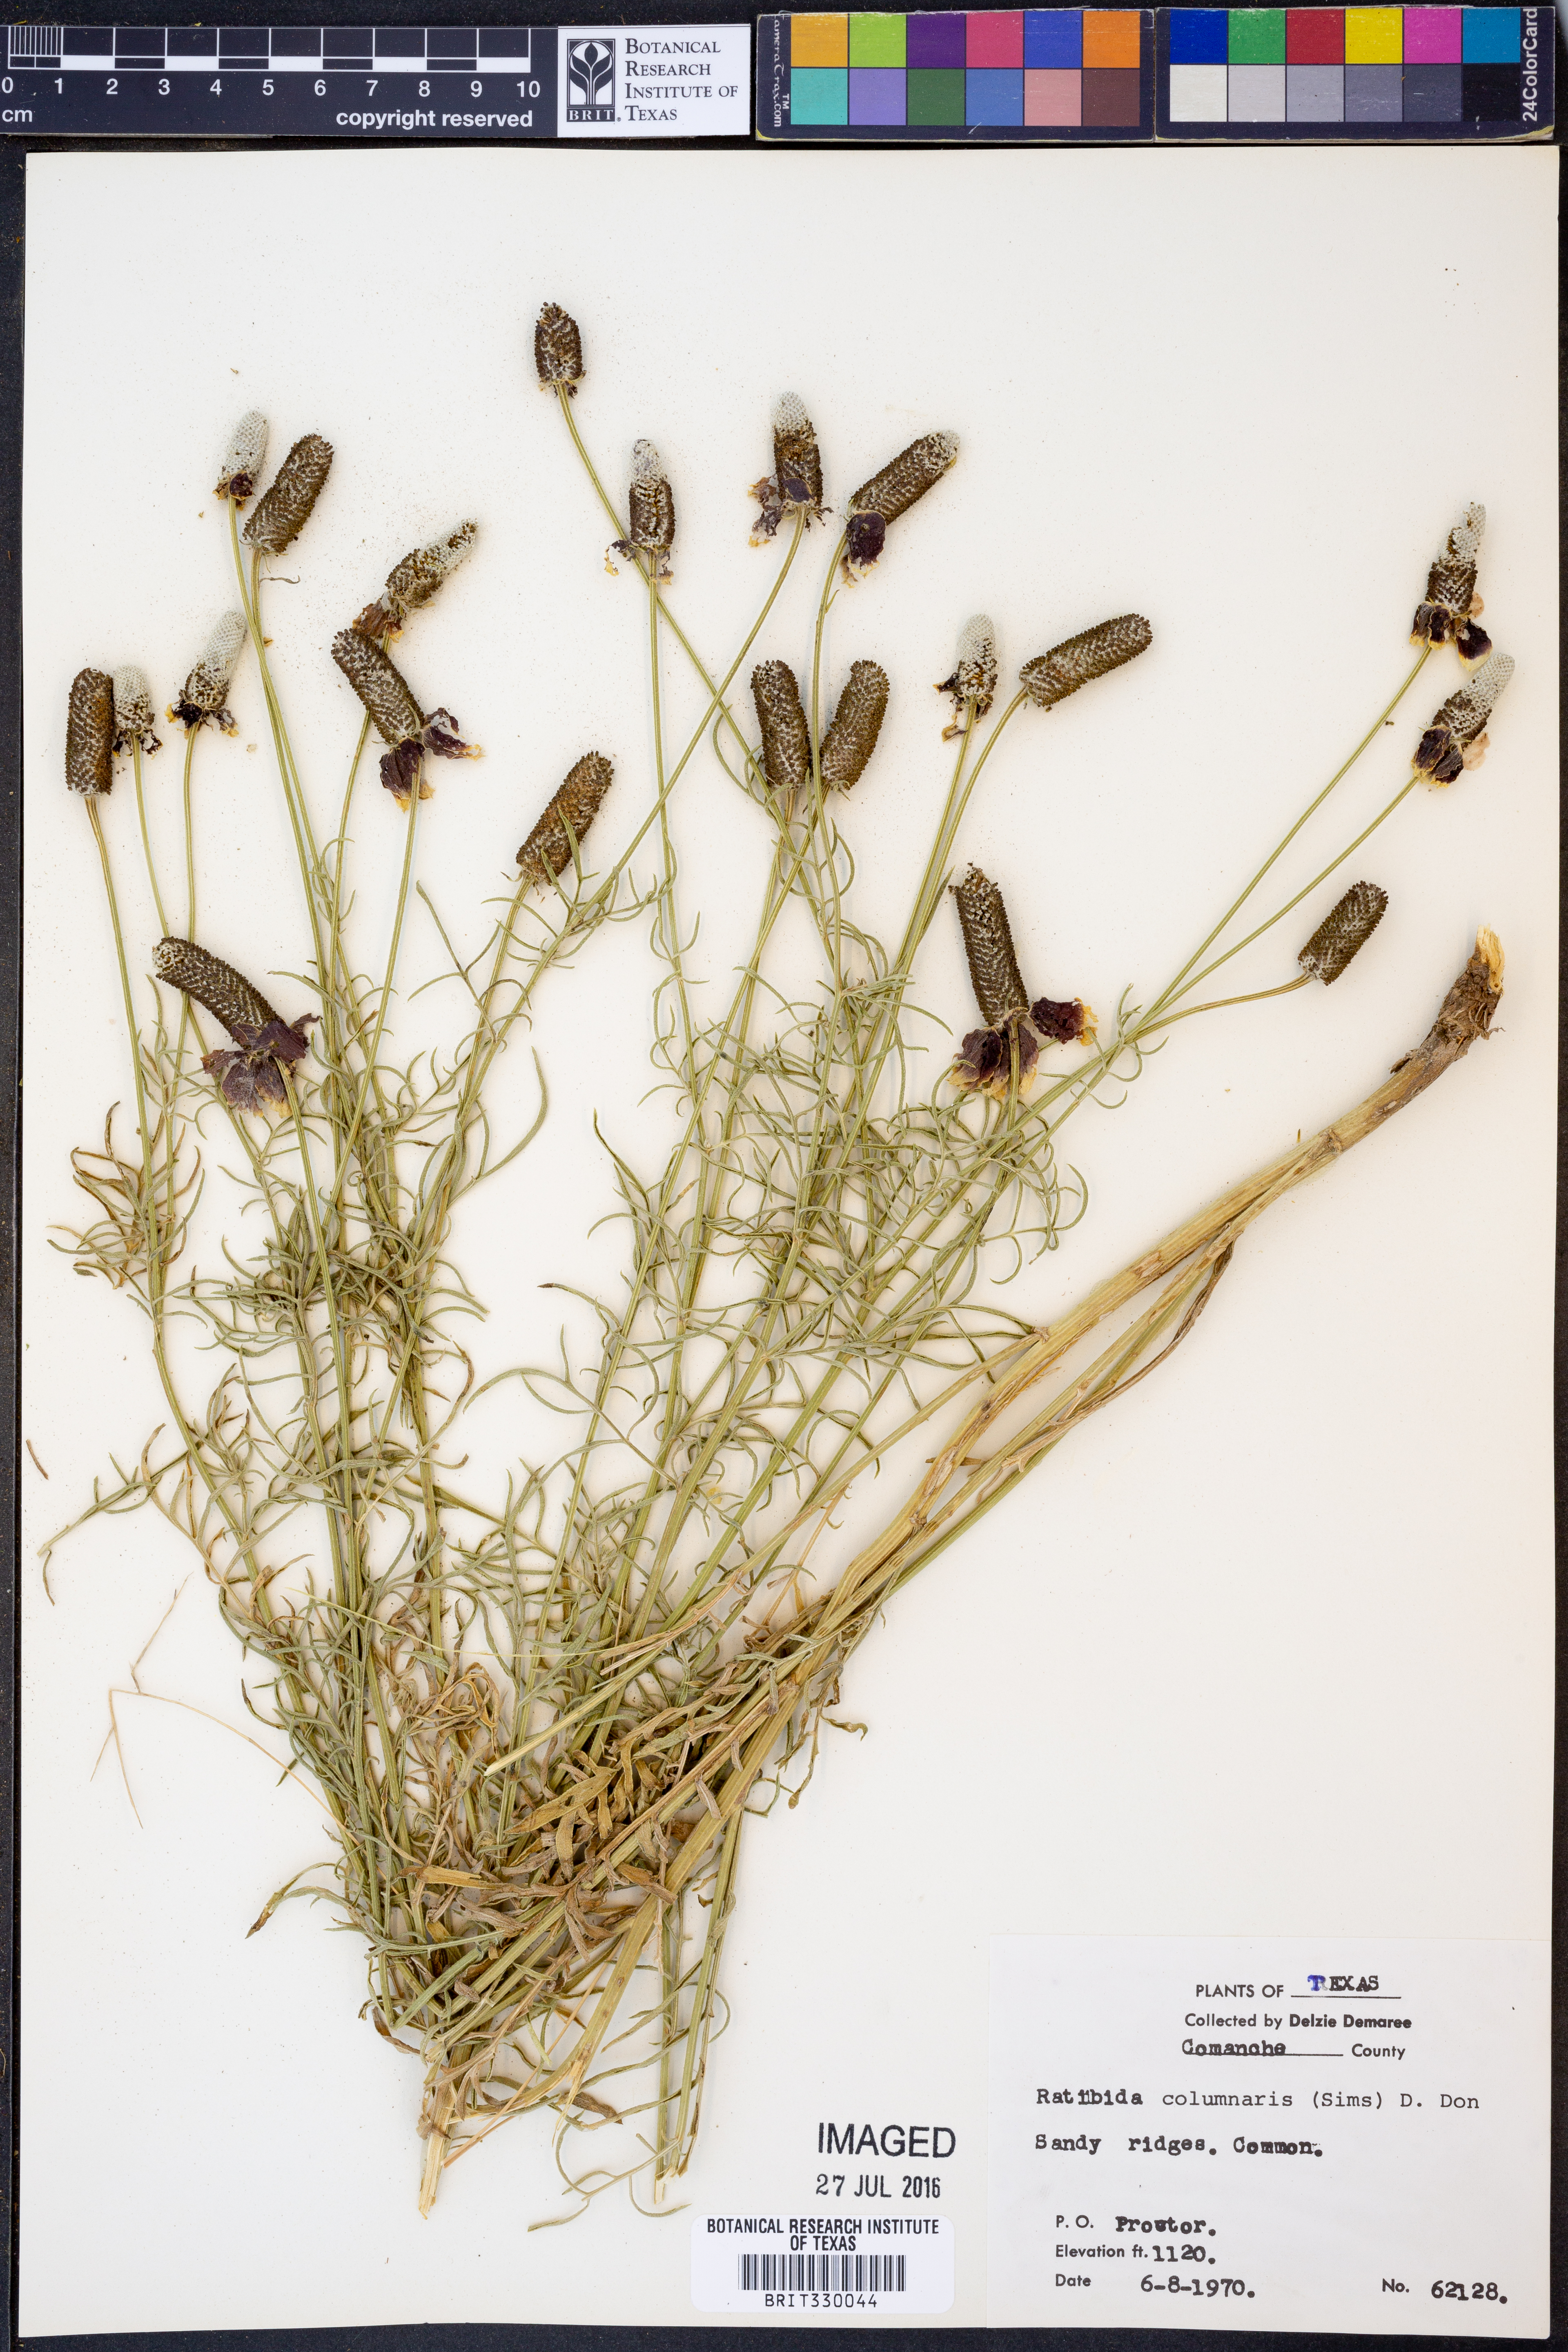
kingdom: Plantae
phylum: Tracheophyta
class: Magnoliopsida
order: Asterales
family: Asteraceae
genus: Ratibida
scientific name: Ratibida columnifera
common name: Prairie coneflower
